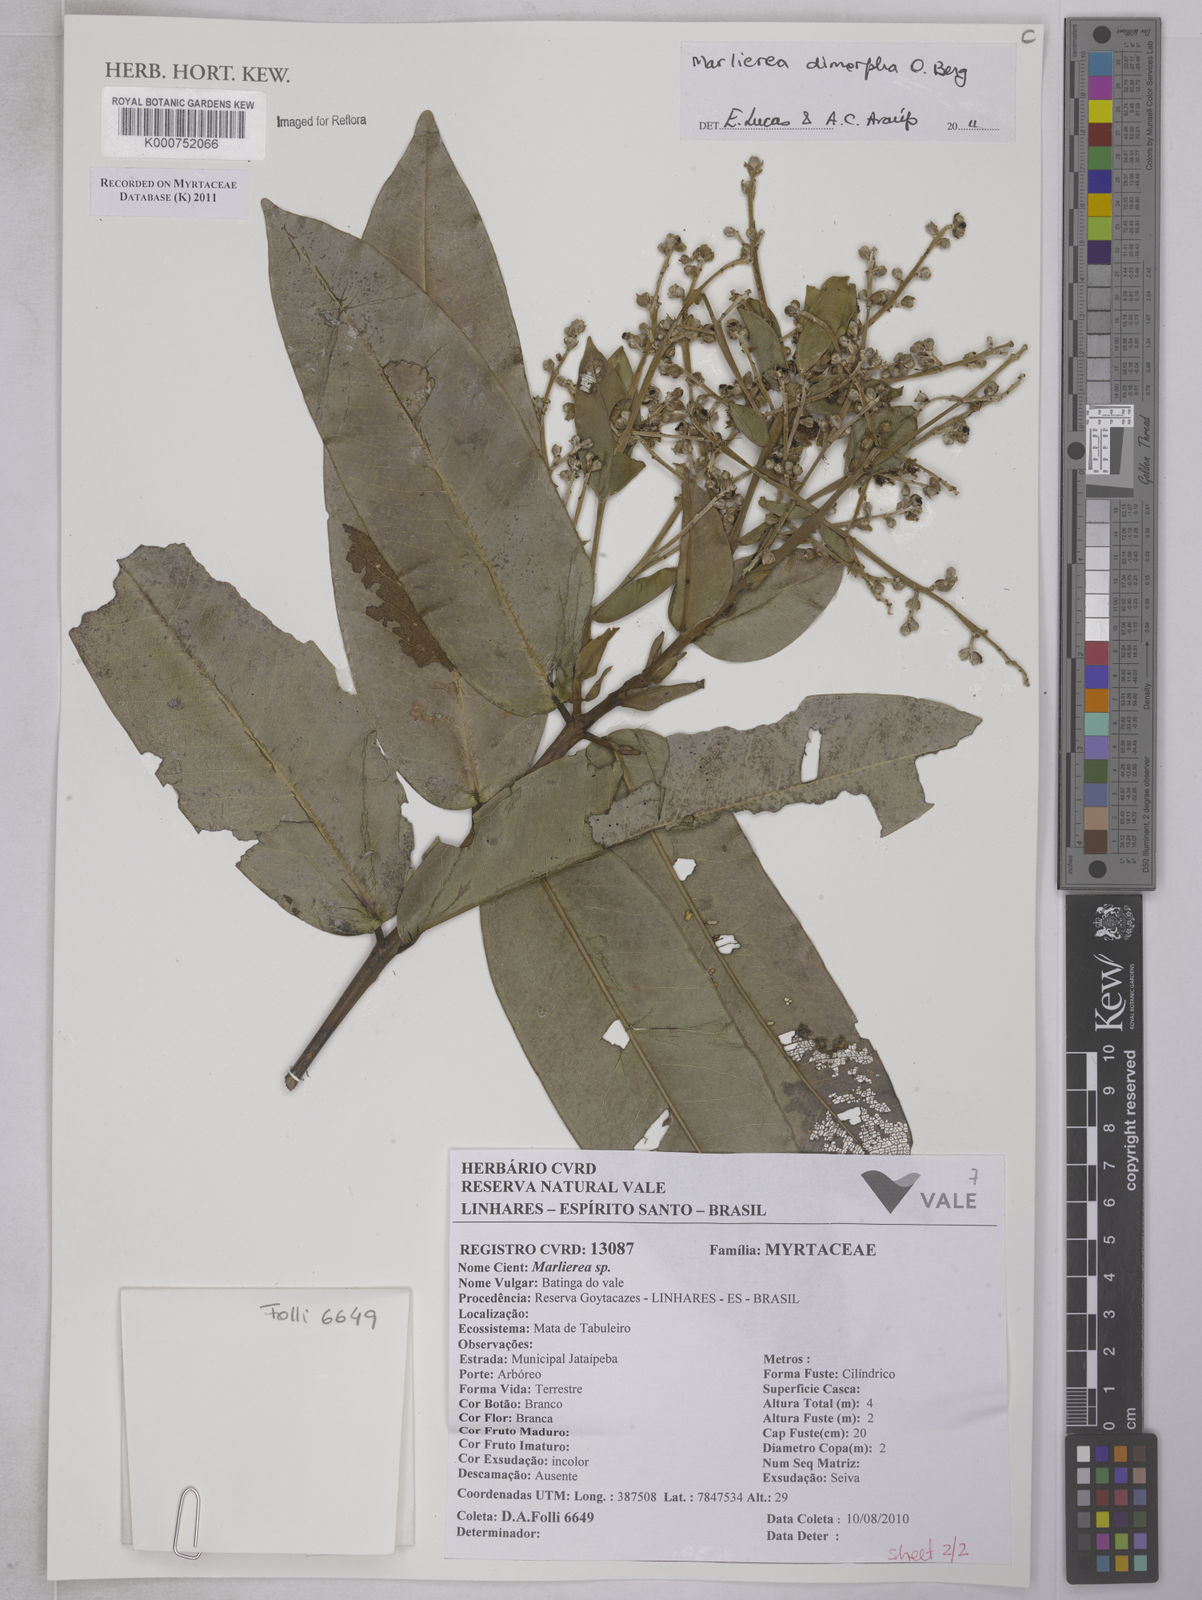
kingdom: Plantae
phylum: Tracheophyta
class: Magnoliopsida
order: Myrtales
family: Myrtaceae
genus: Myrcia
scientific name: Myrcia neodimorpha
